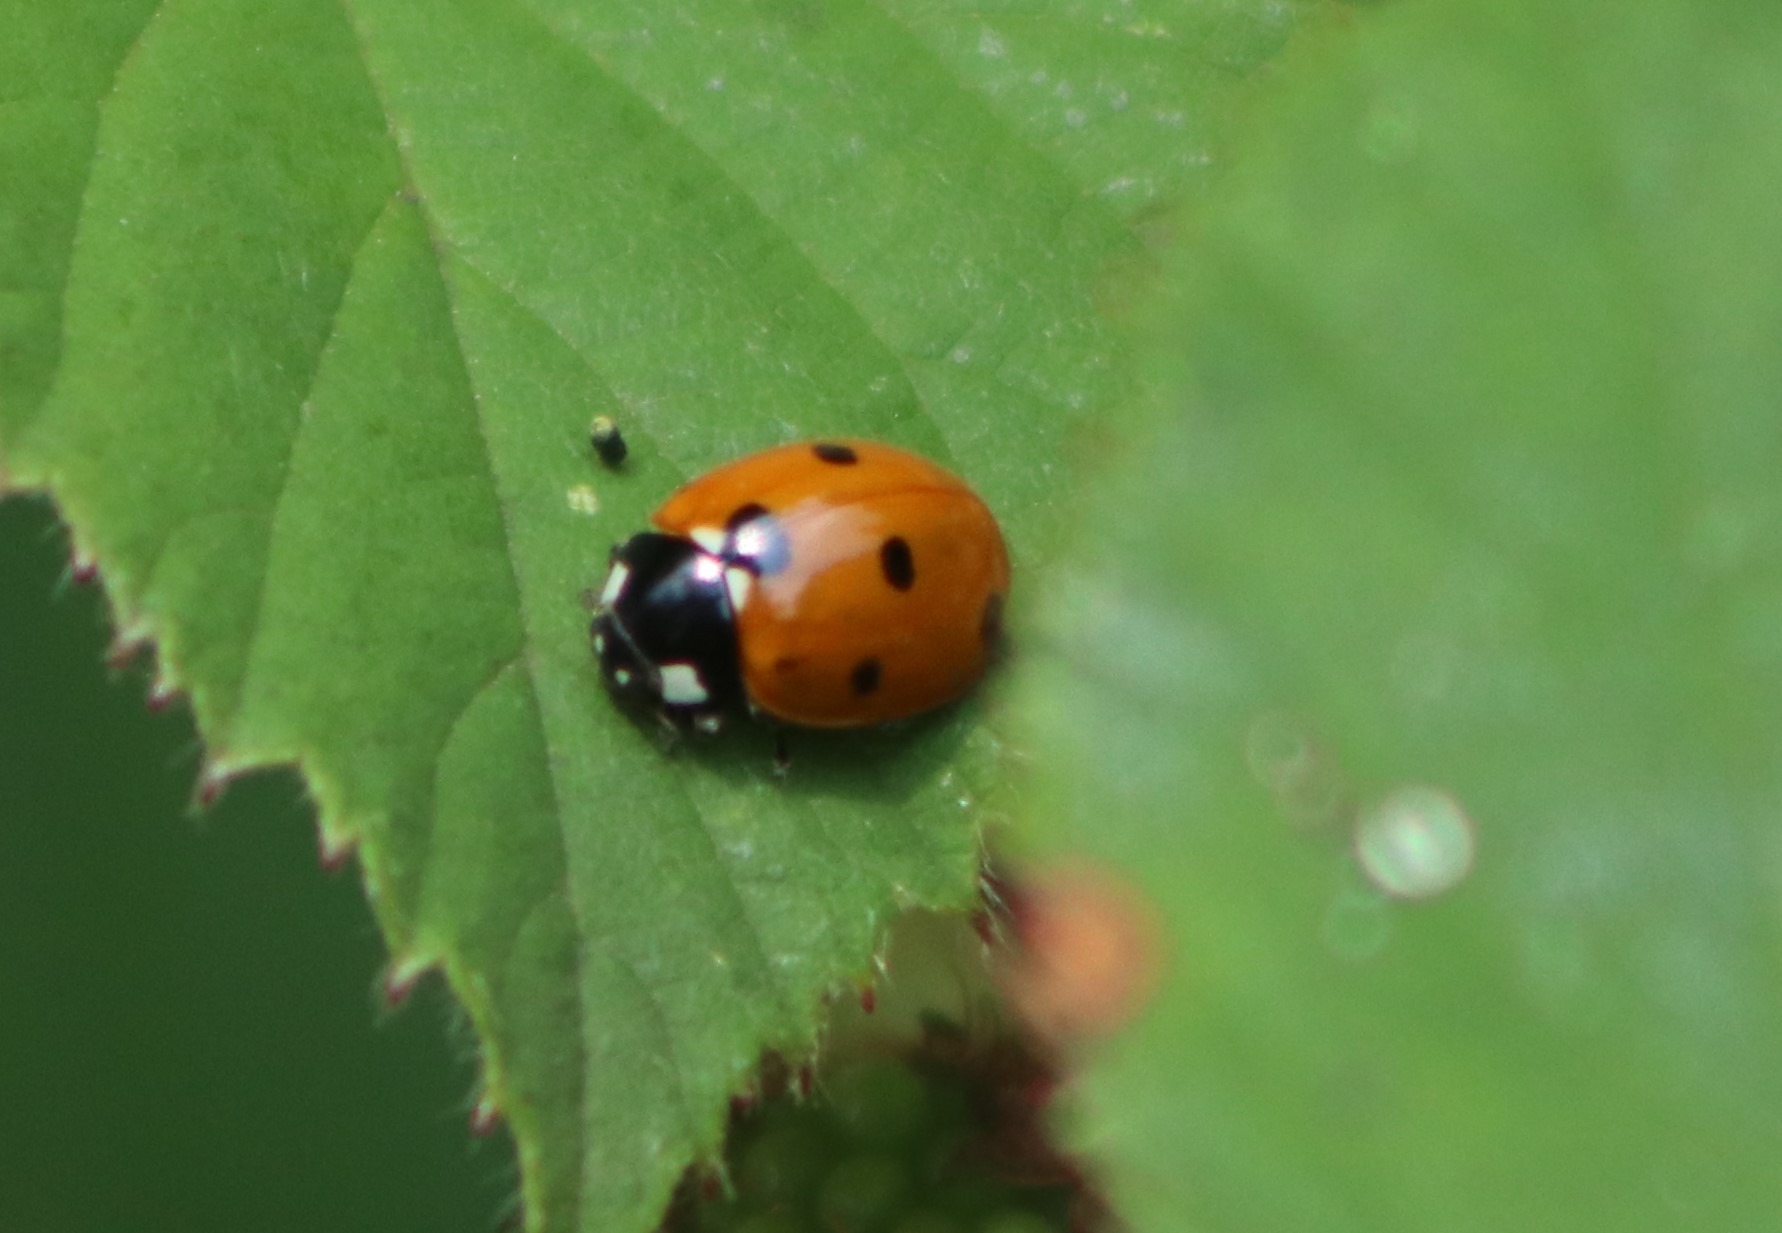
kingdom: Animalia
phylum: Arthropoda
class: Insecta
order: Coleoptera
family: Coccinellidae
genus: Coccinella
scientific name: Coccinella septempunctata
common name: Syvplettet mariehøne
